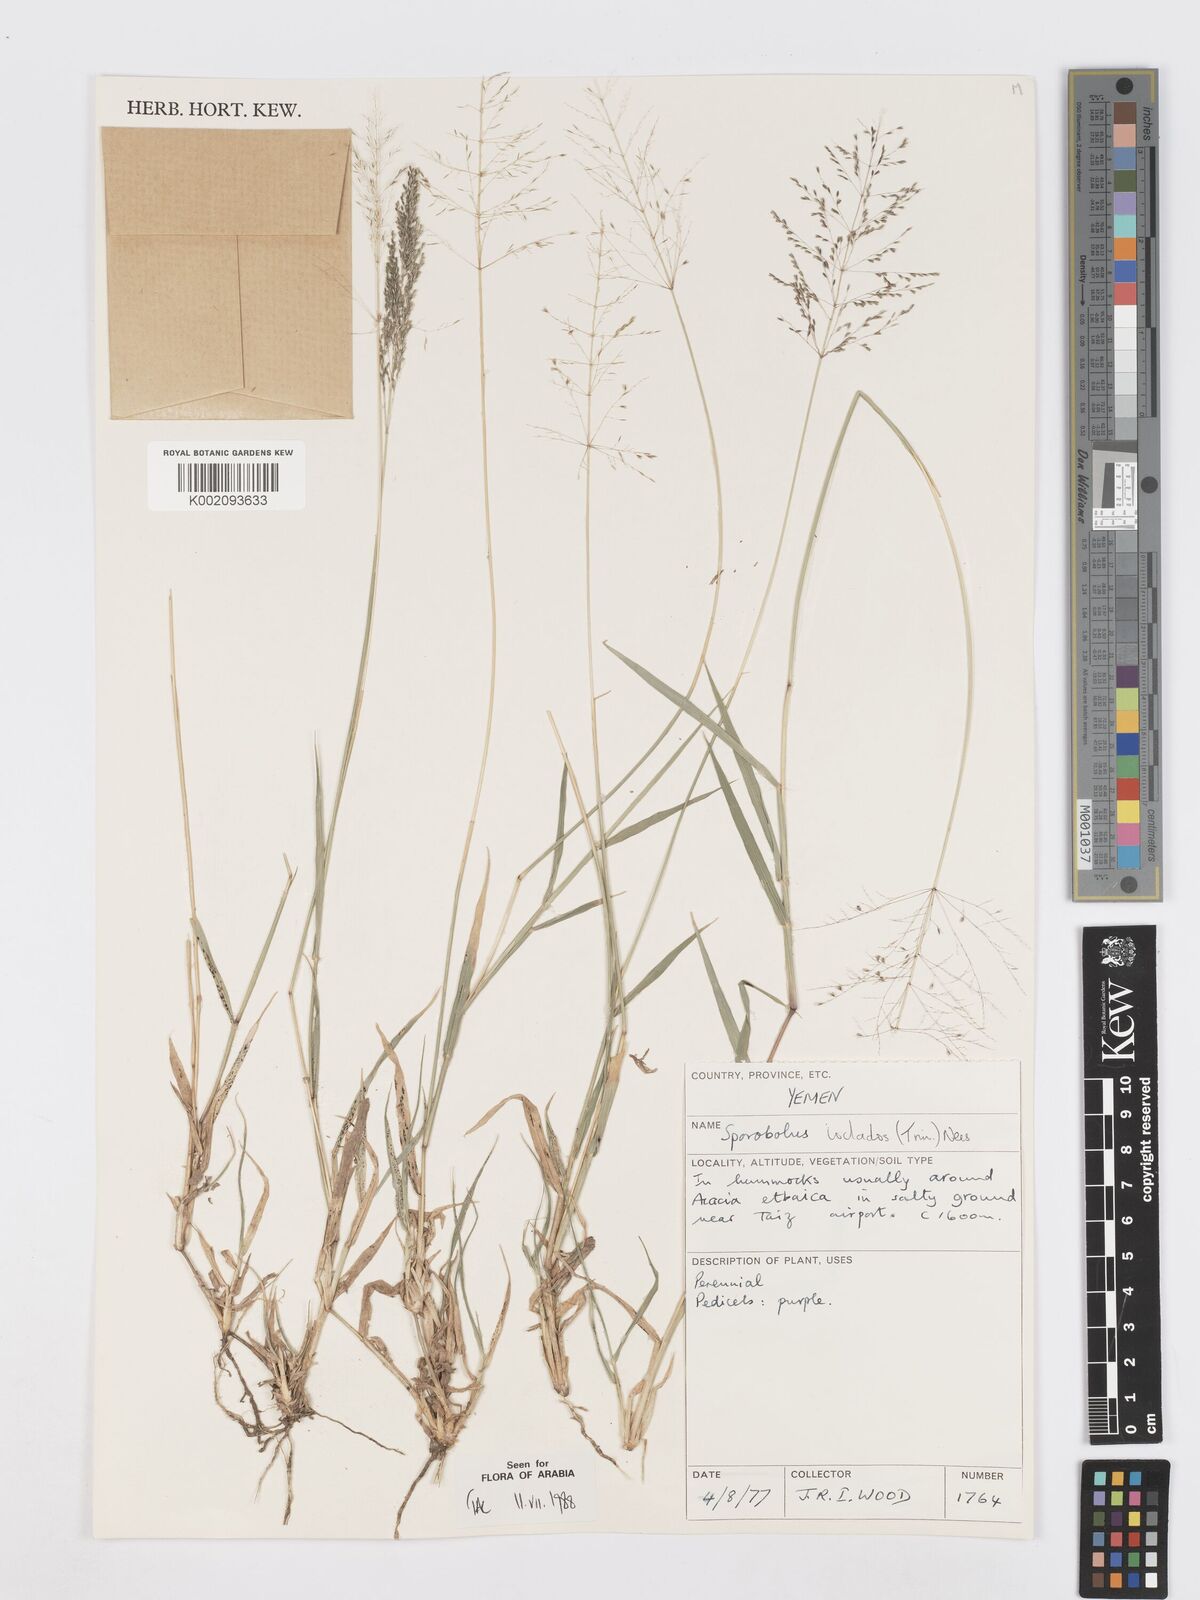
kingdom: Plantae
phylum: Tracheophyta
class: Liliopsida
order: Poales
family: Poaceae
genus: Sporobolus
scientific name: Sporobolus ioclados
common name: Pan dropseed
